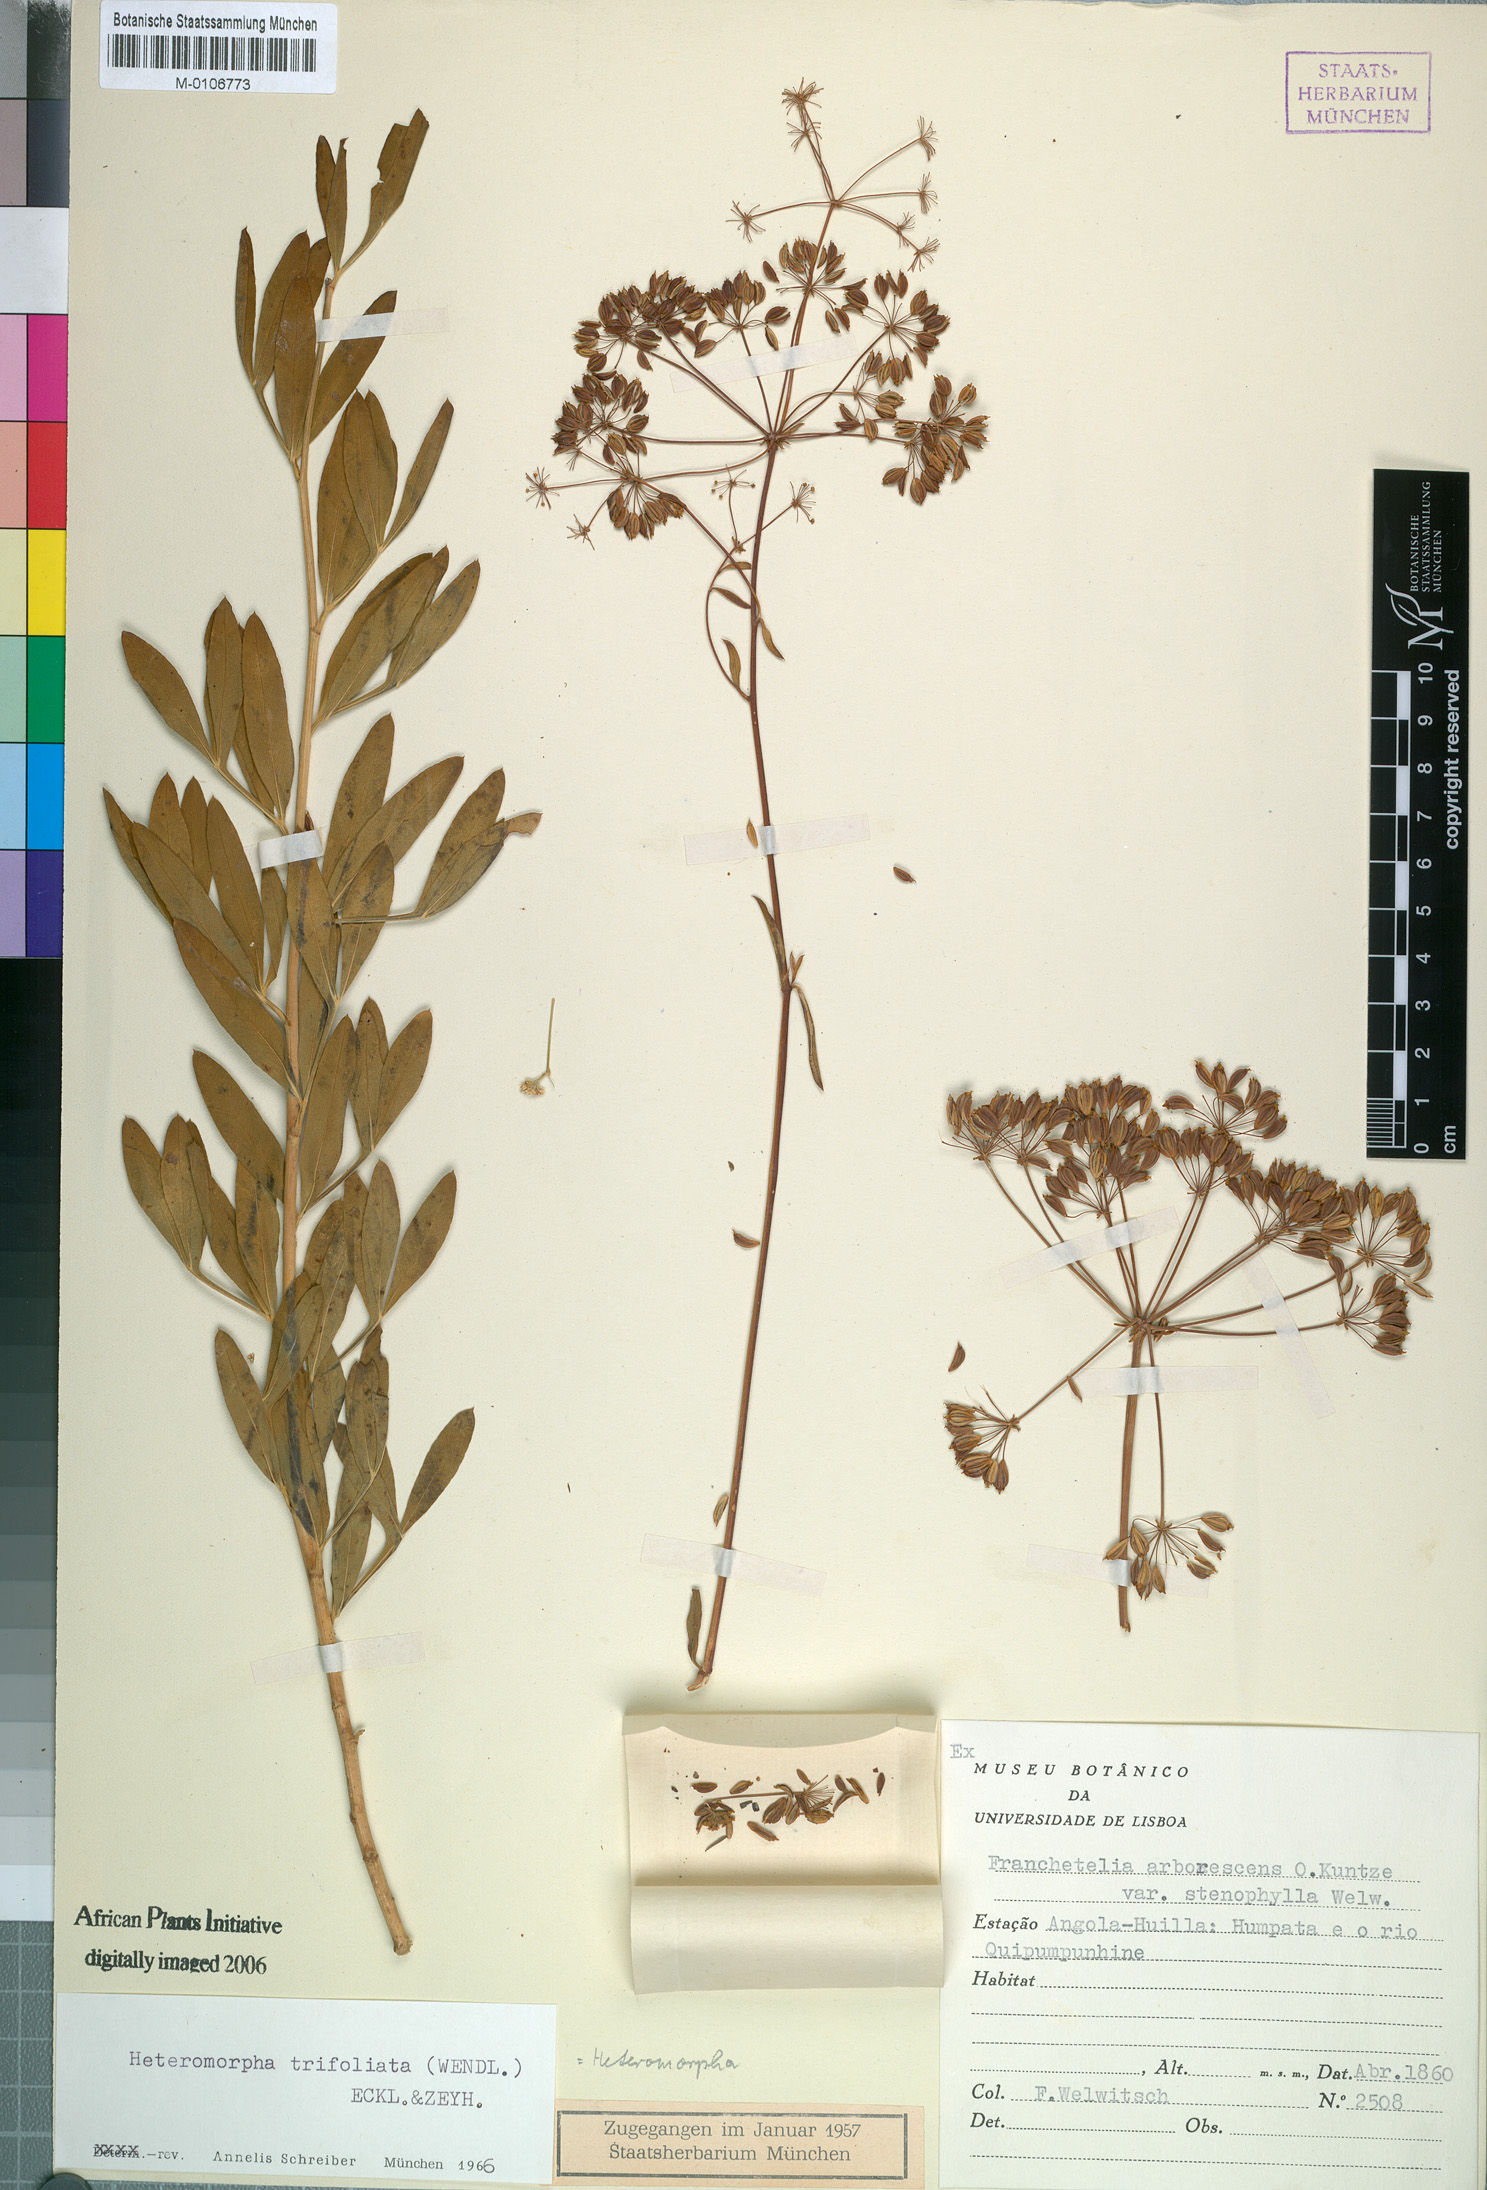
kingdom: Plantae
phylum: Tracheophyta
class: Magnoliopsida
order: Apiales
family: Apiaceae
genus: Heteromorpha
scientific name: Heteromorpha arborescens
